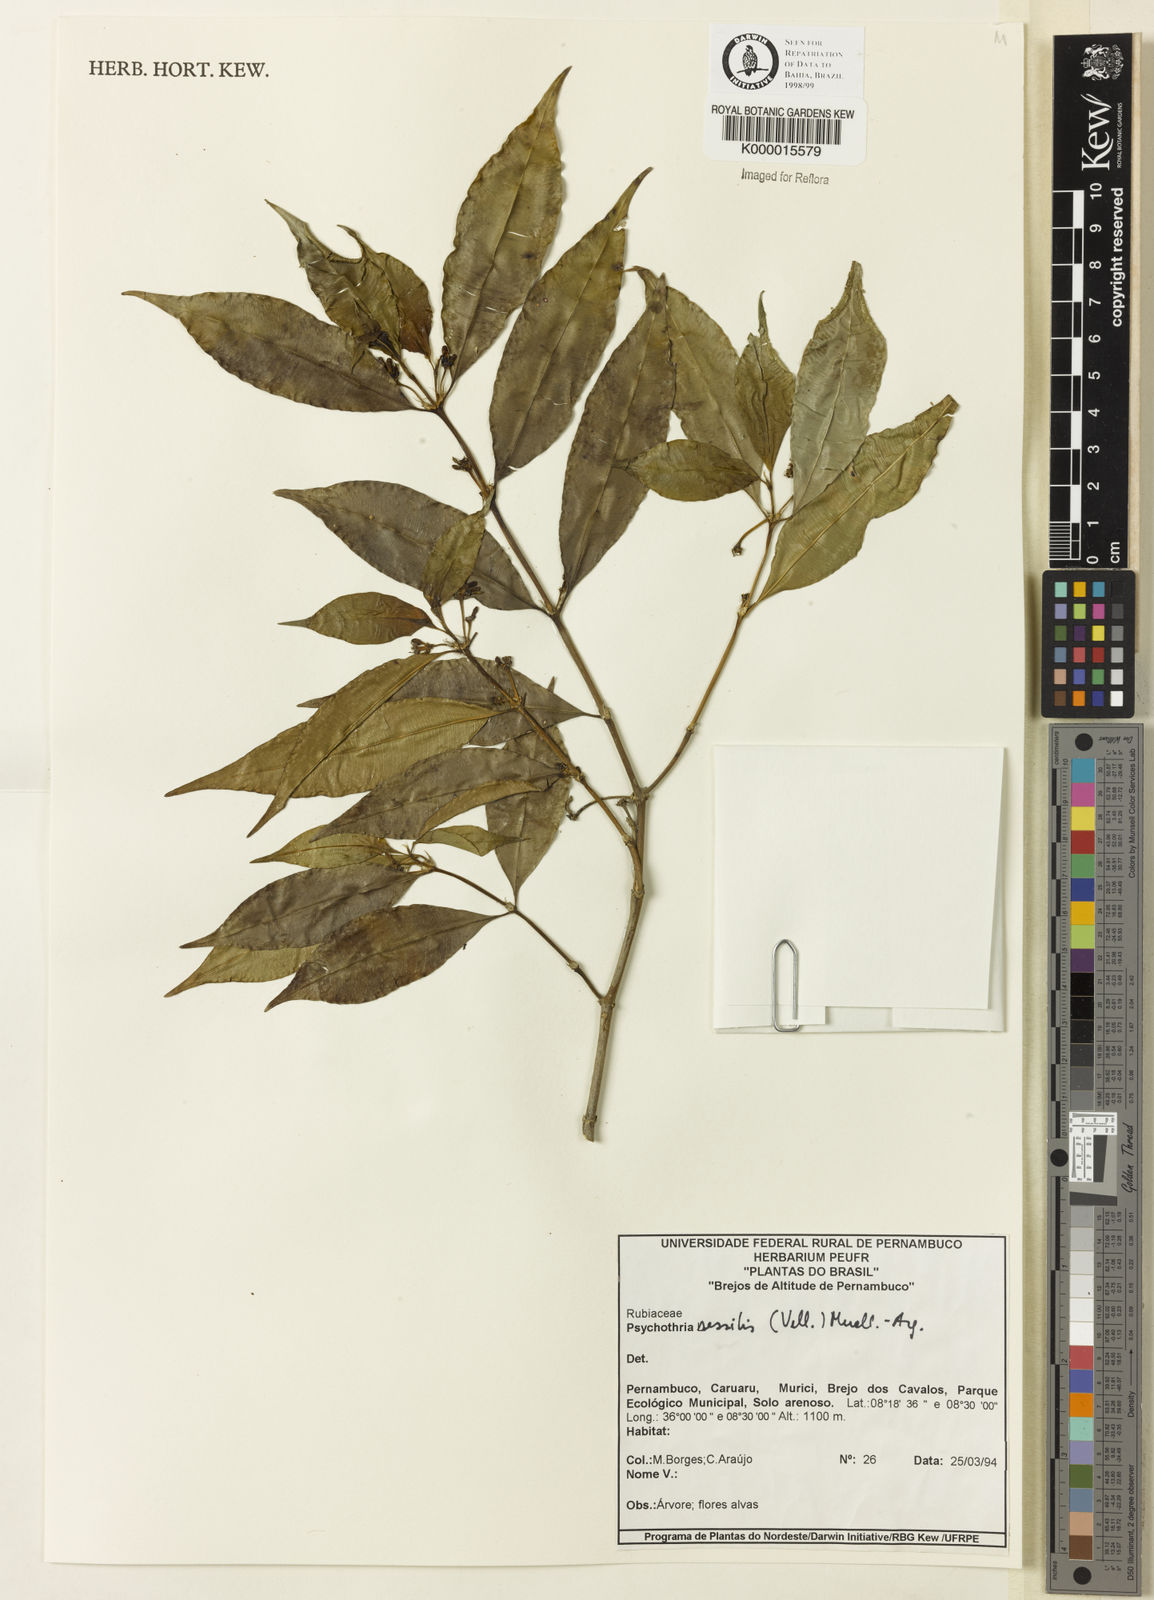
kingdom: Plantae
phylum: Tracheophyta
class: Magnoliopsida
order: Gentianales
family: Rubiaceae
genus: Psychotria
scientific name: Psychotria
